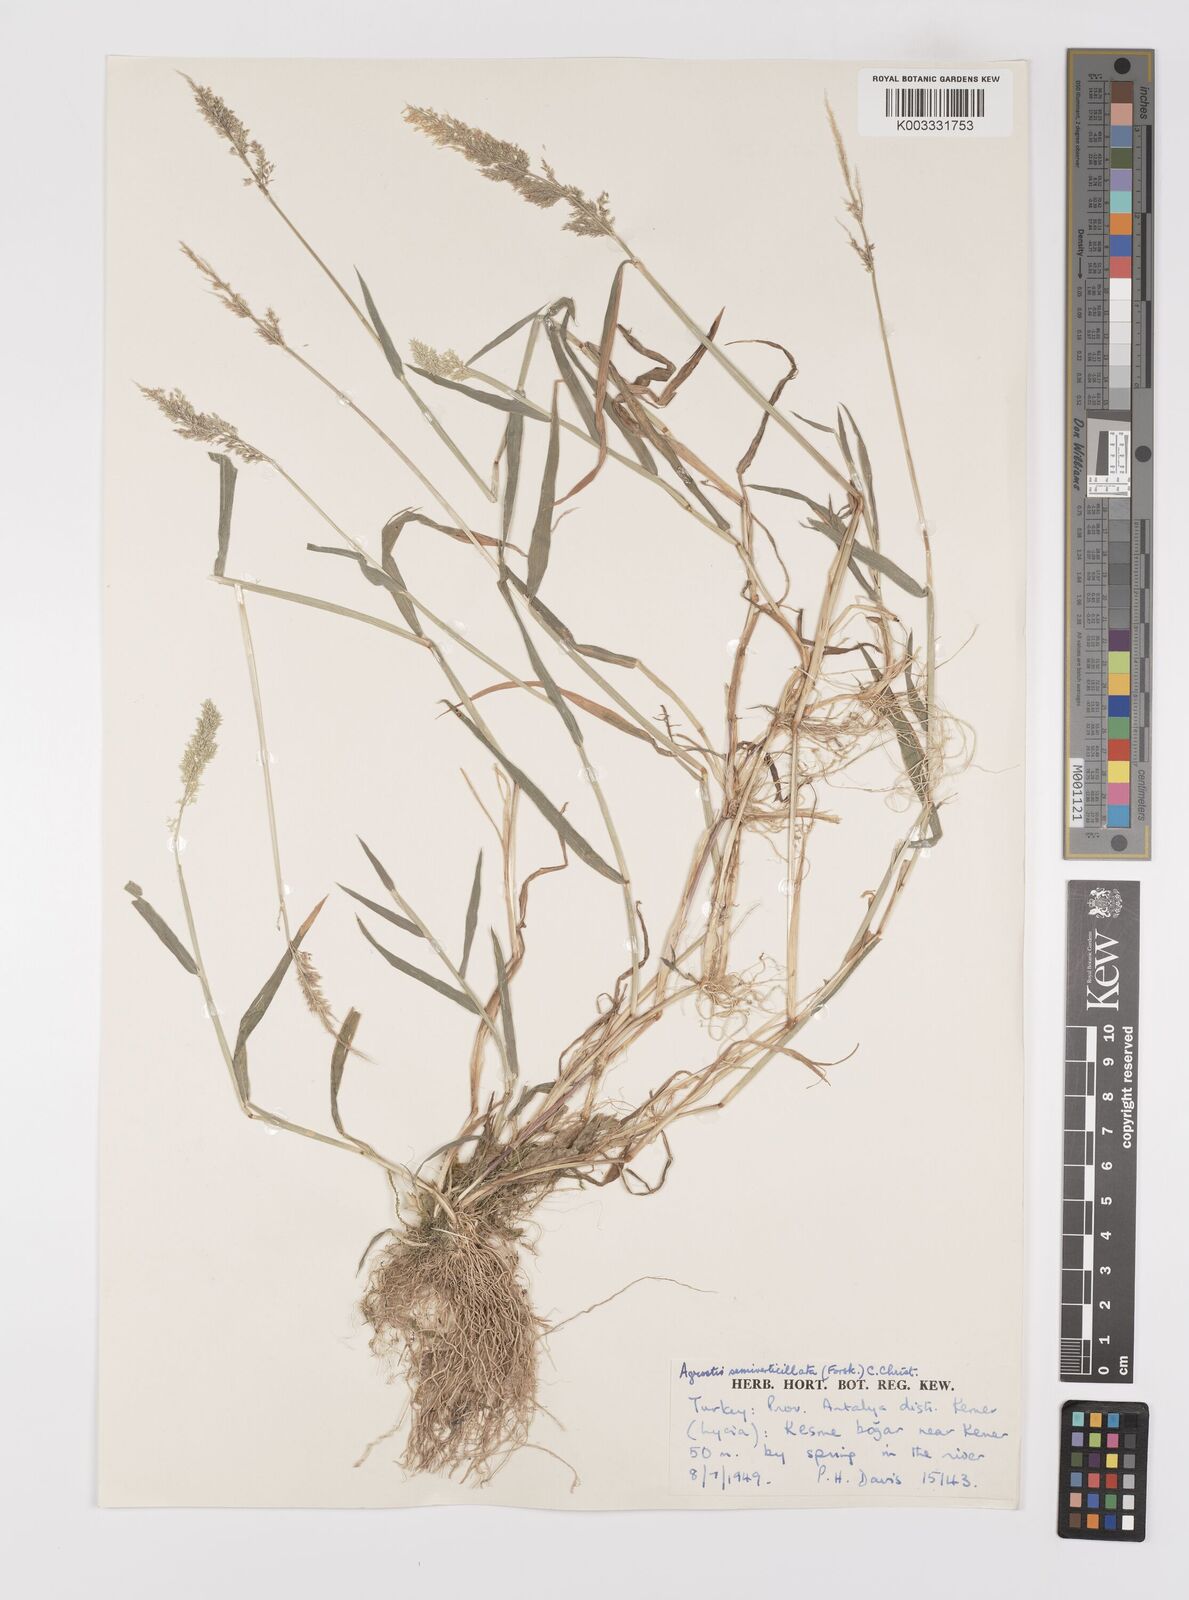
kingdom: Plantae
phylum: Tracheophyta
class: Liliopsida
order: Poales
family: Poaceae
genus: Polypogon
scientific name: Polypogon viridis
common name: Water bent
